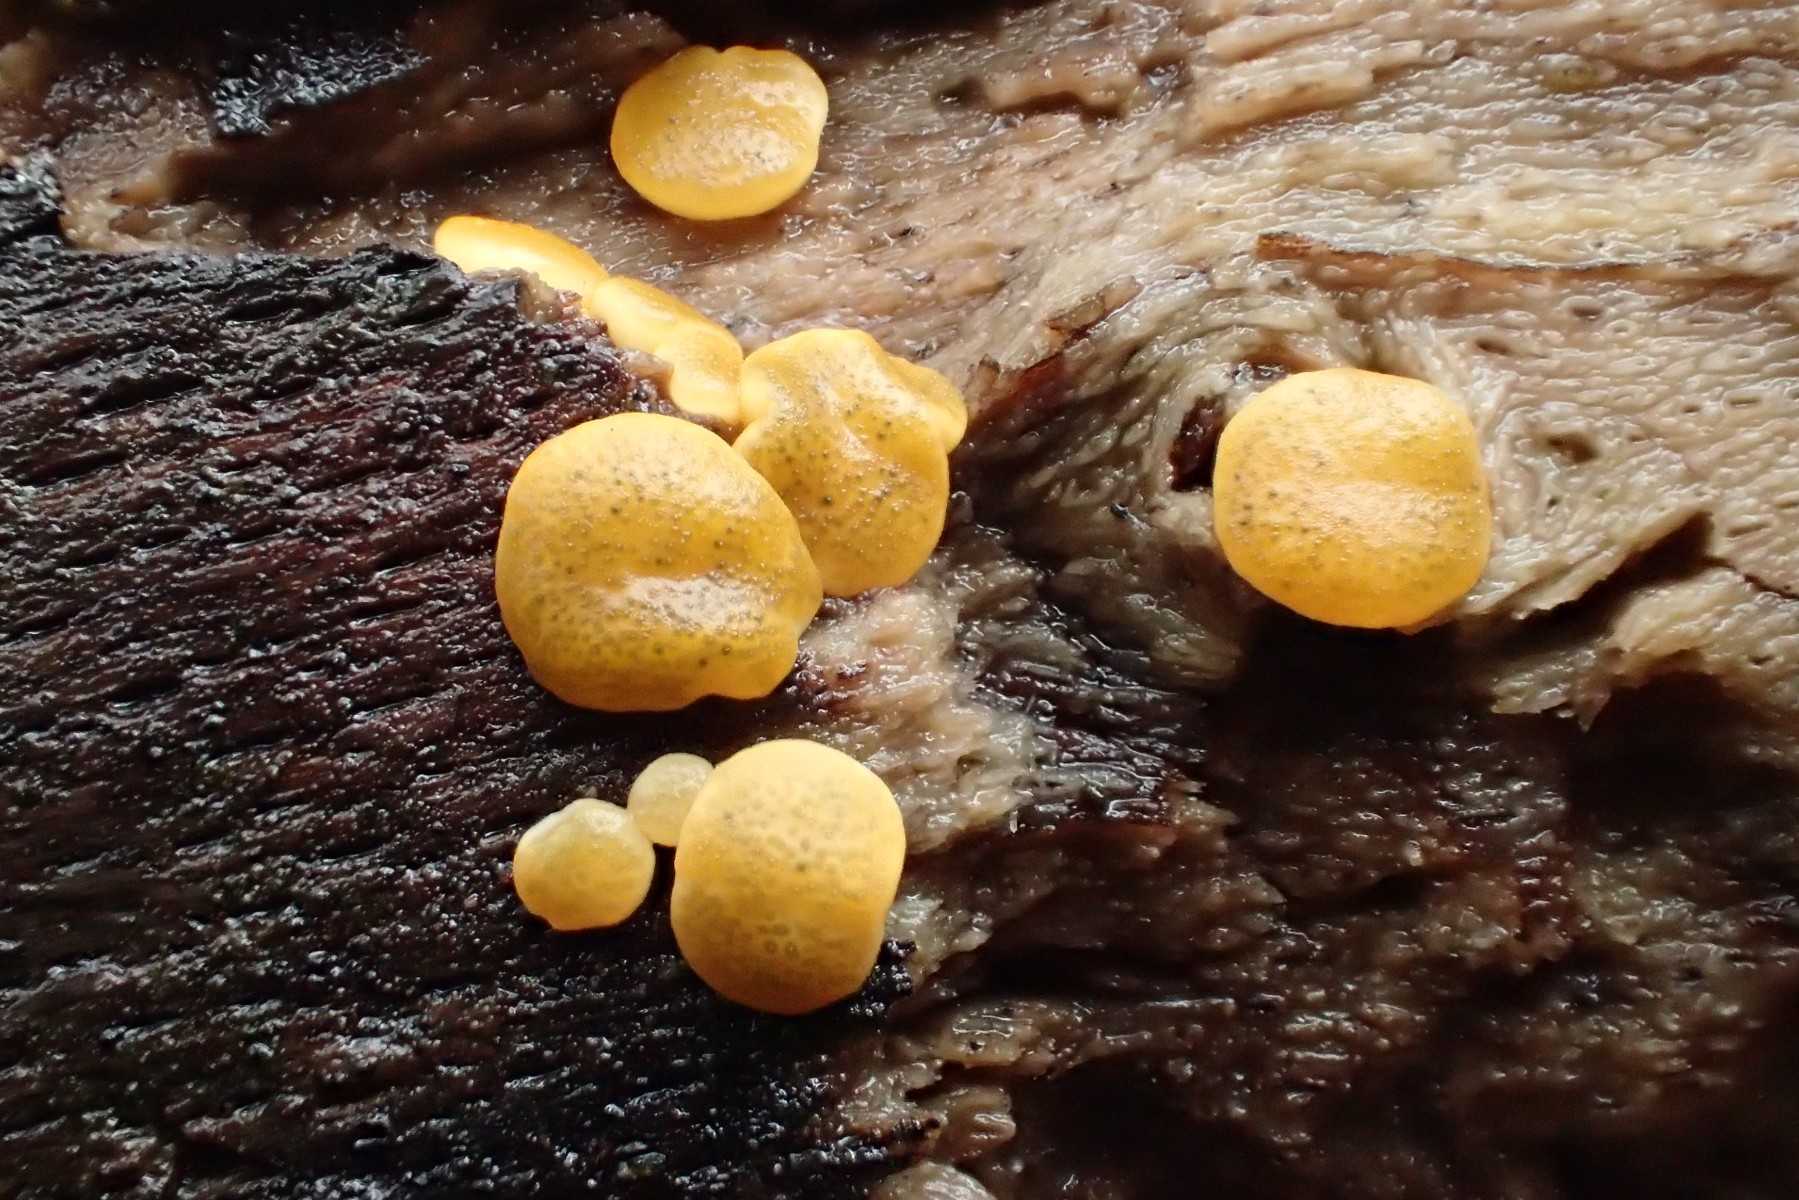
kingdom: Fungi
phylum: Ascomycota
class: Sordariomycetes
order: Hypocreales
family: Hypocreaceae
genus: Trichoderma
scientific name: Trichoderma aureoviride
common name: æggegul kødkerne
